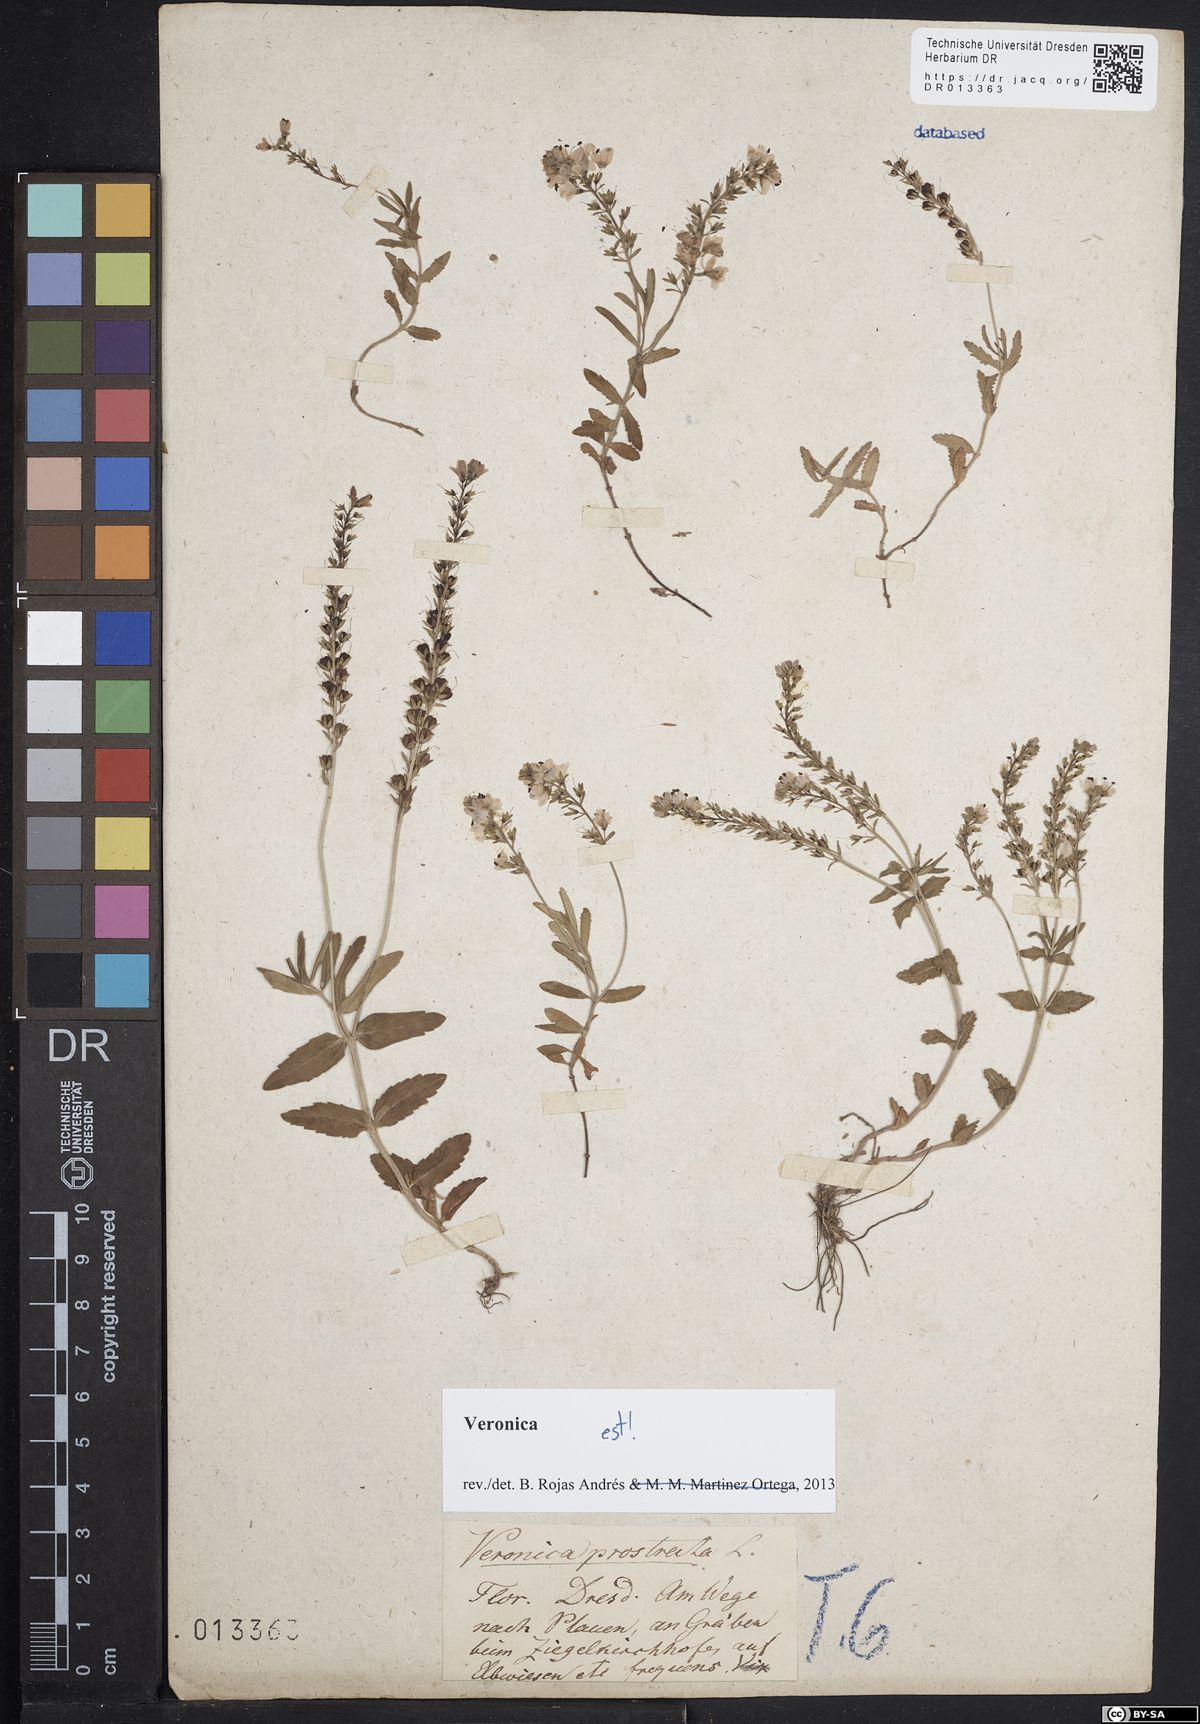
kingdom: Plantae
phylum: Tracheophyta
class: Magnoliopsida
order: Lamiales
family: Plantaginaceae
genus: Veronica
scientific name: Veronica prostrata
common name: Prostrate speedwell
